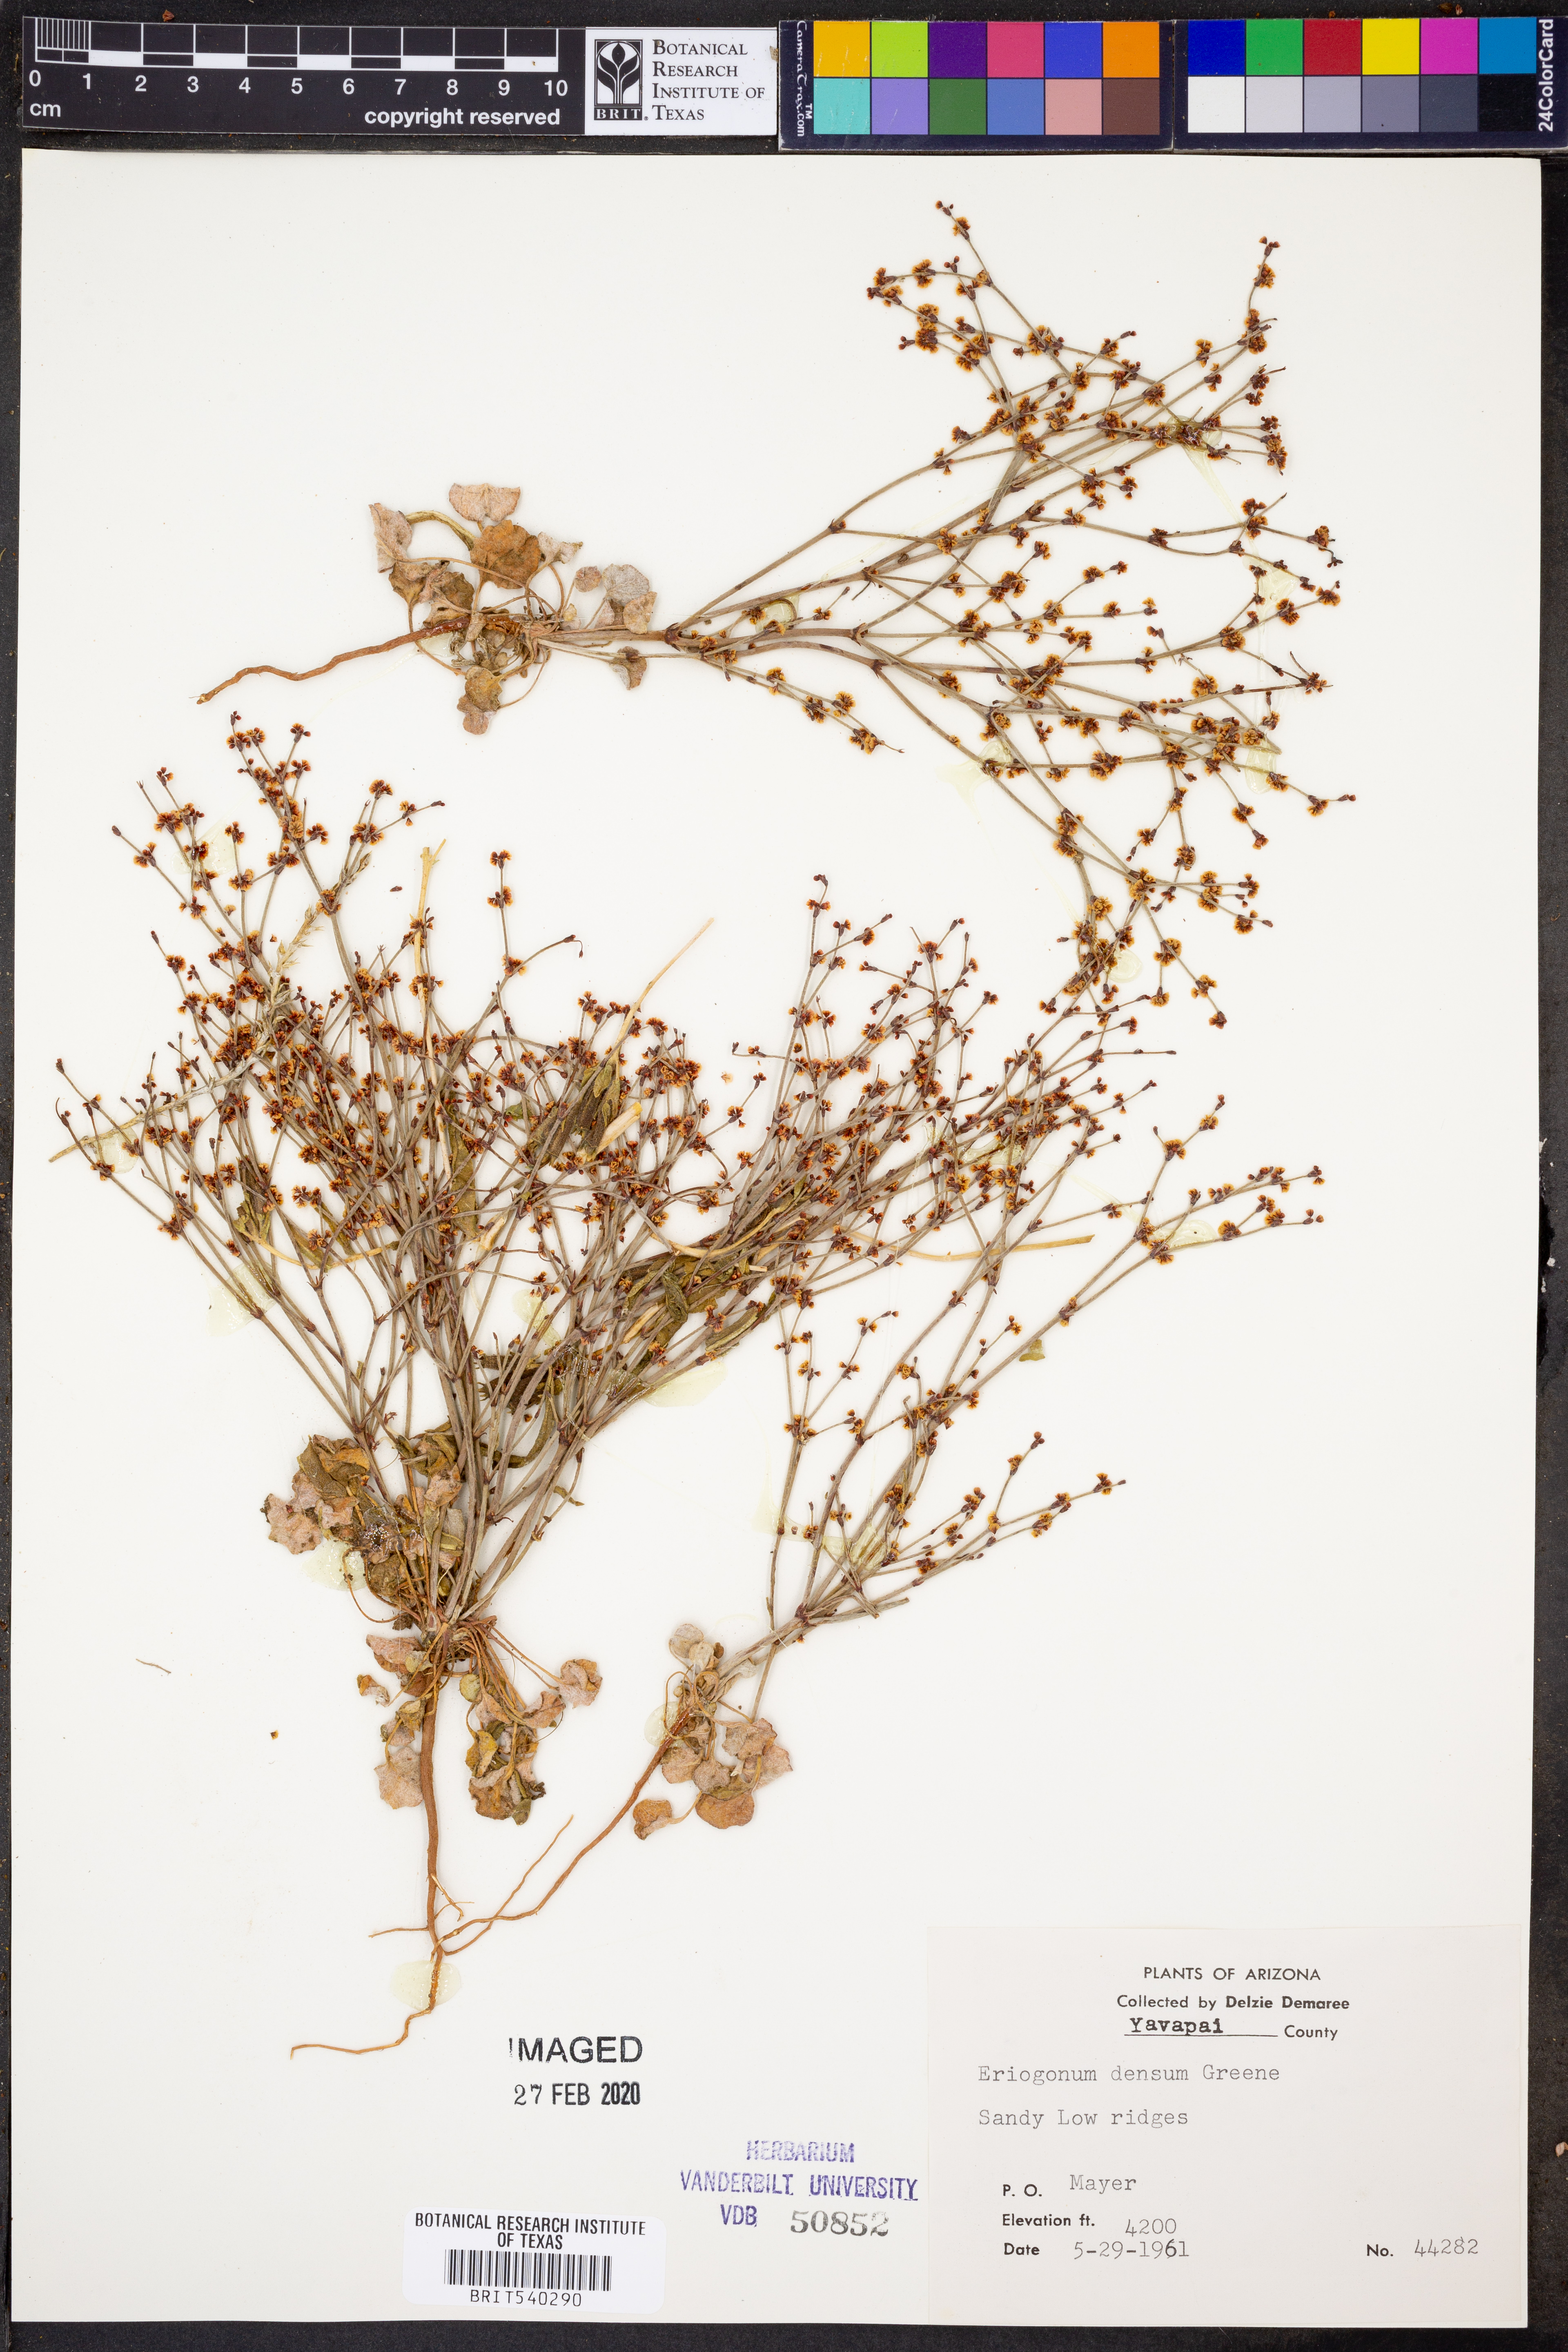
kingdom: Plantae
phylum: Tracheophyta
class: Magnoliopsida
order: Caryophyllales
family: Polygonaceae
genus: Eriogonum
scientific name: Eriogonum polycladon
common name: Sorrel wild buckwheat
